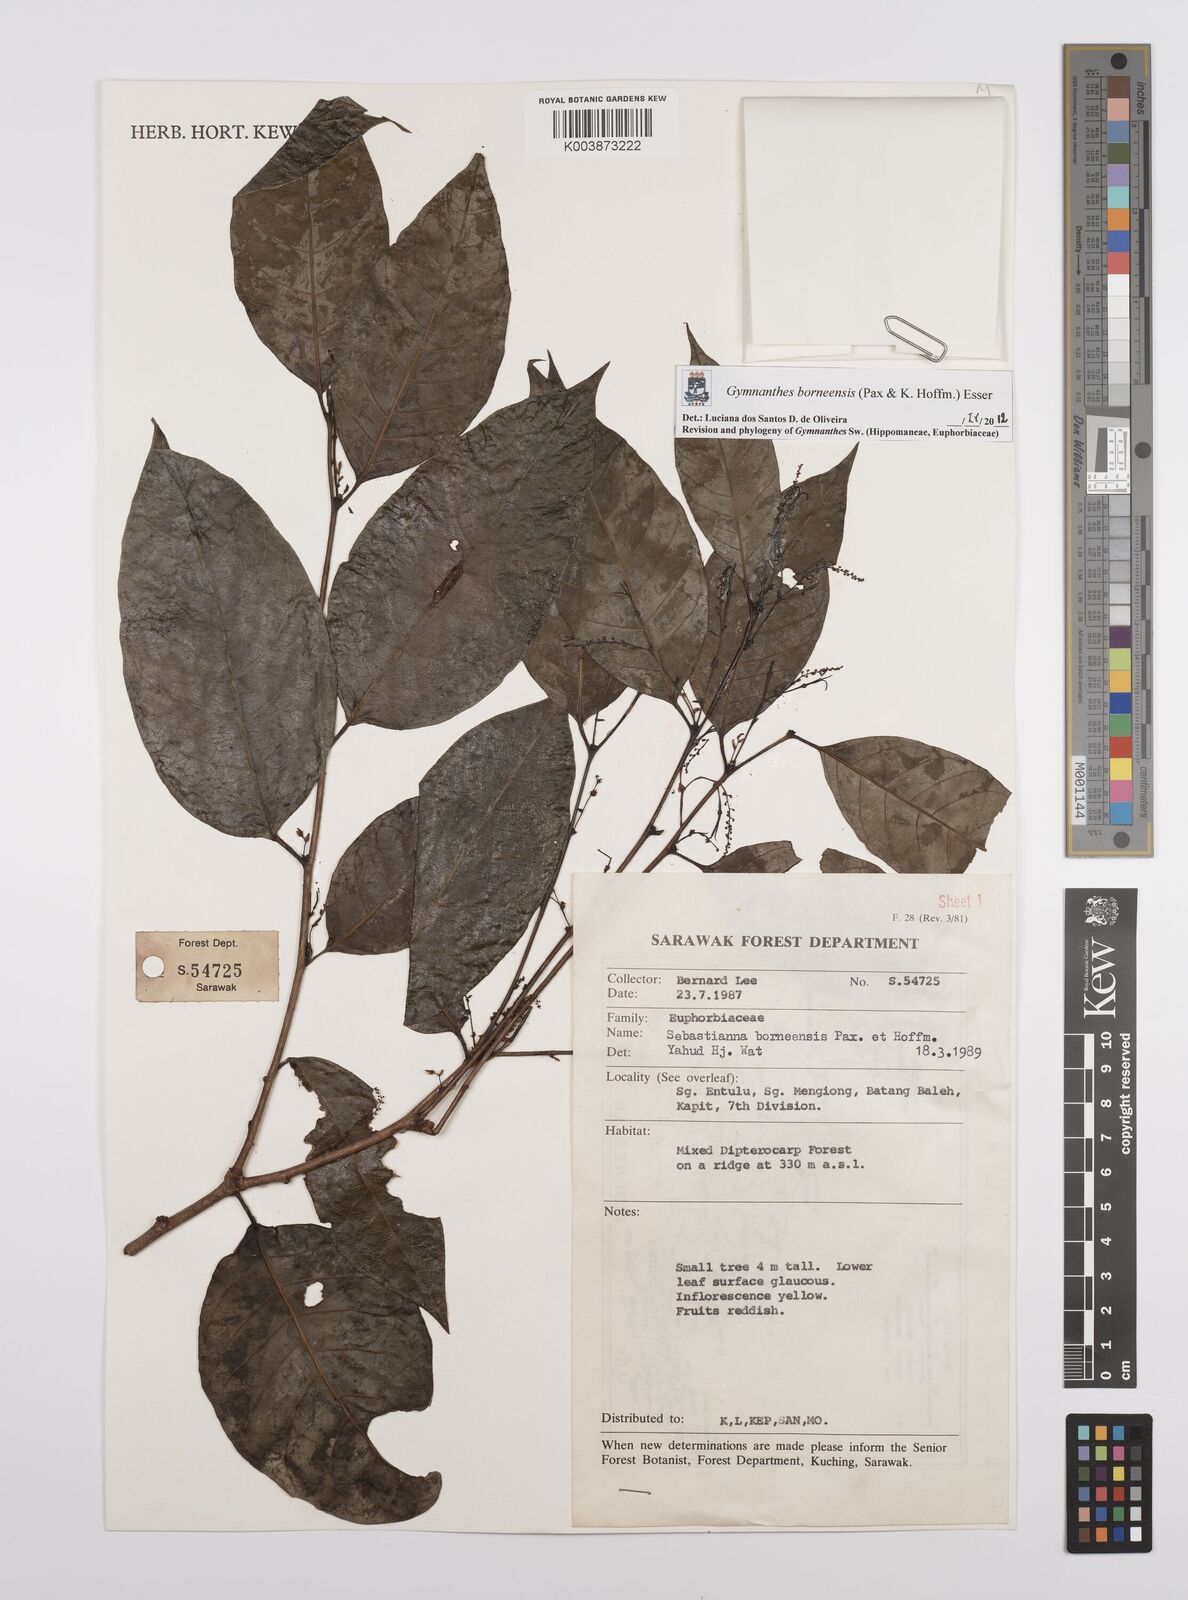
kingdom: Plantae
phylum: Tracheophyta
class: Magnoliopsida
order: Malpighiales
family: Euphorbiaceae
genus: Gymnanthes
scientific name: Gymnanthes borneensis
